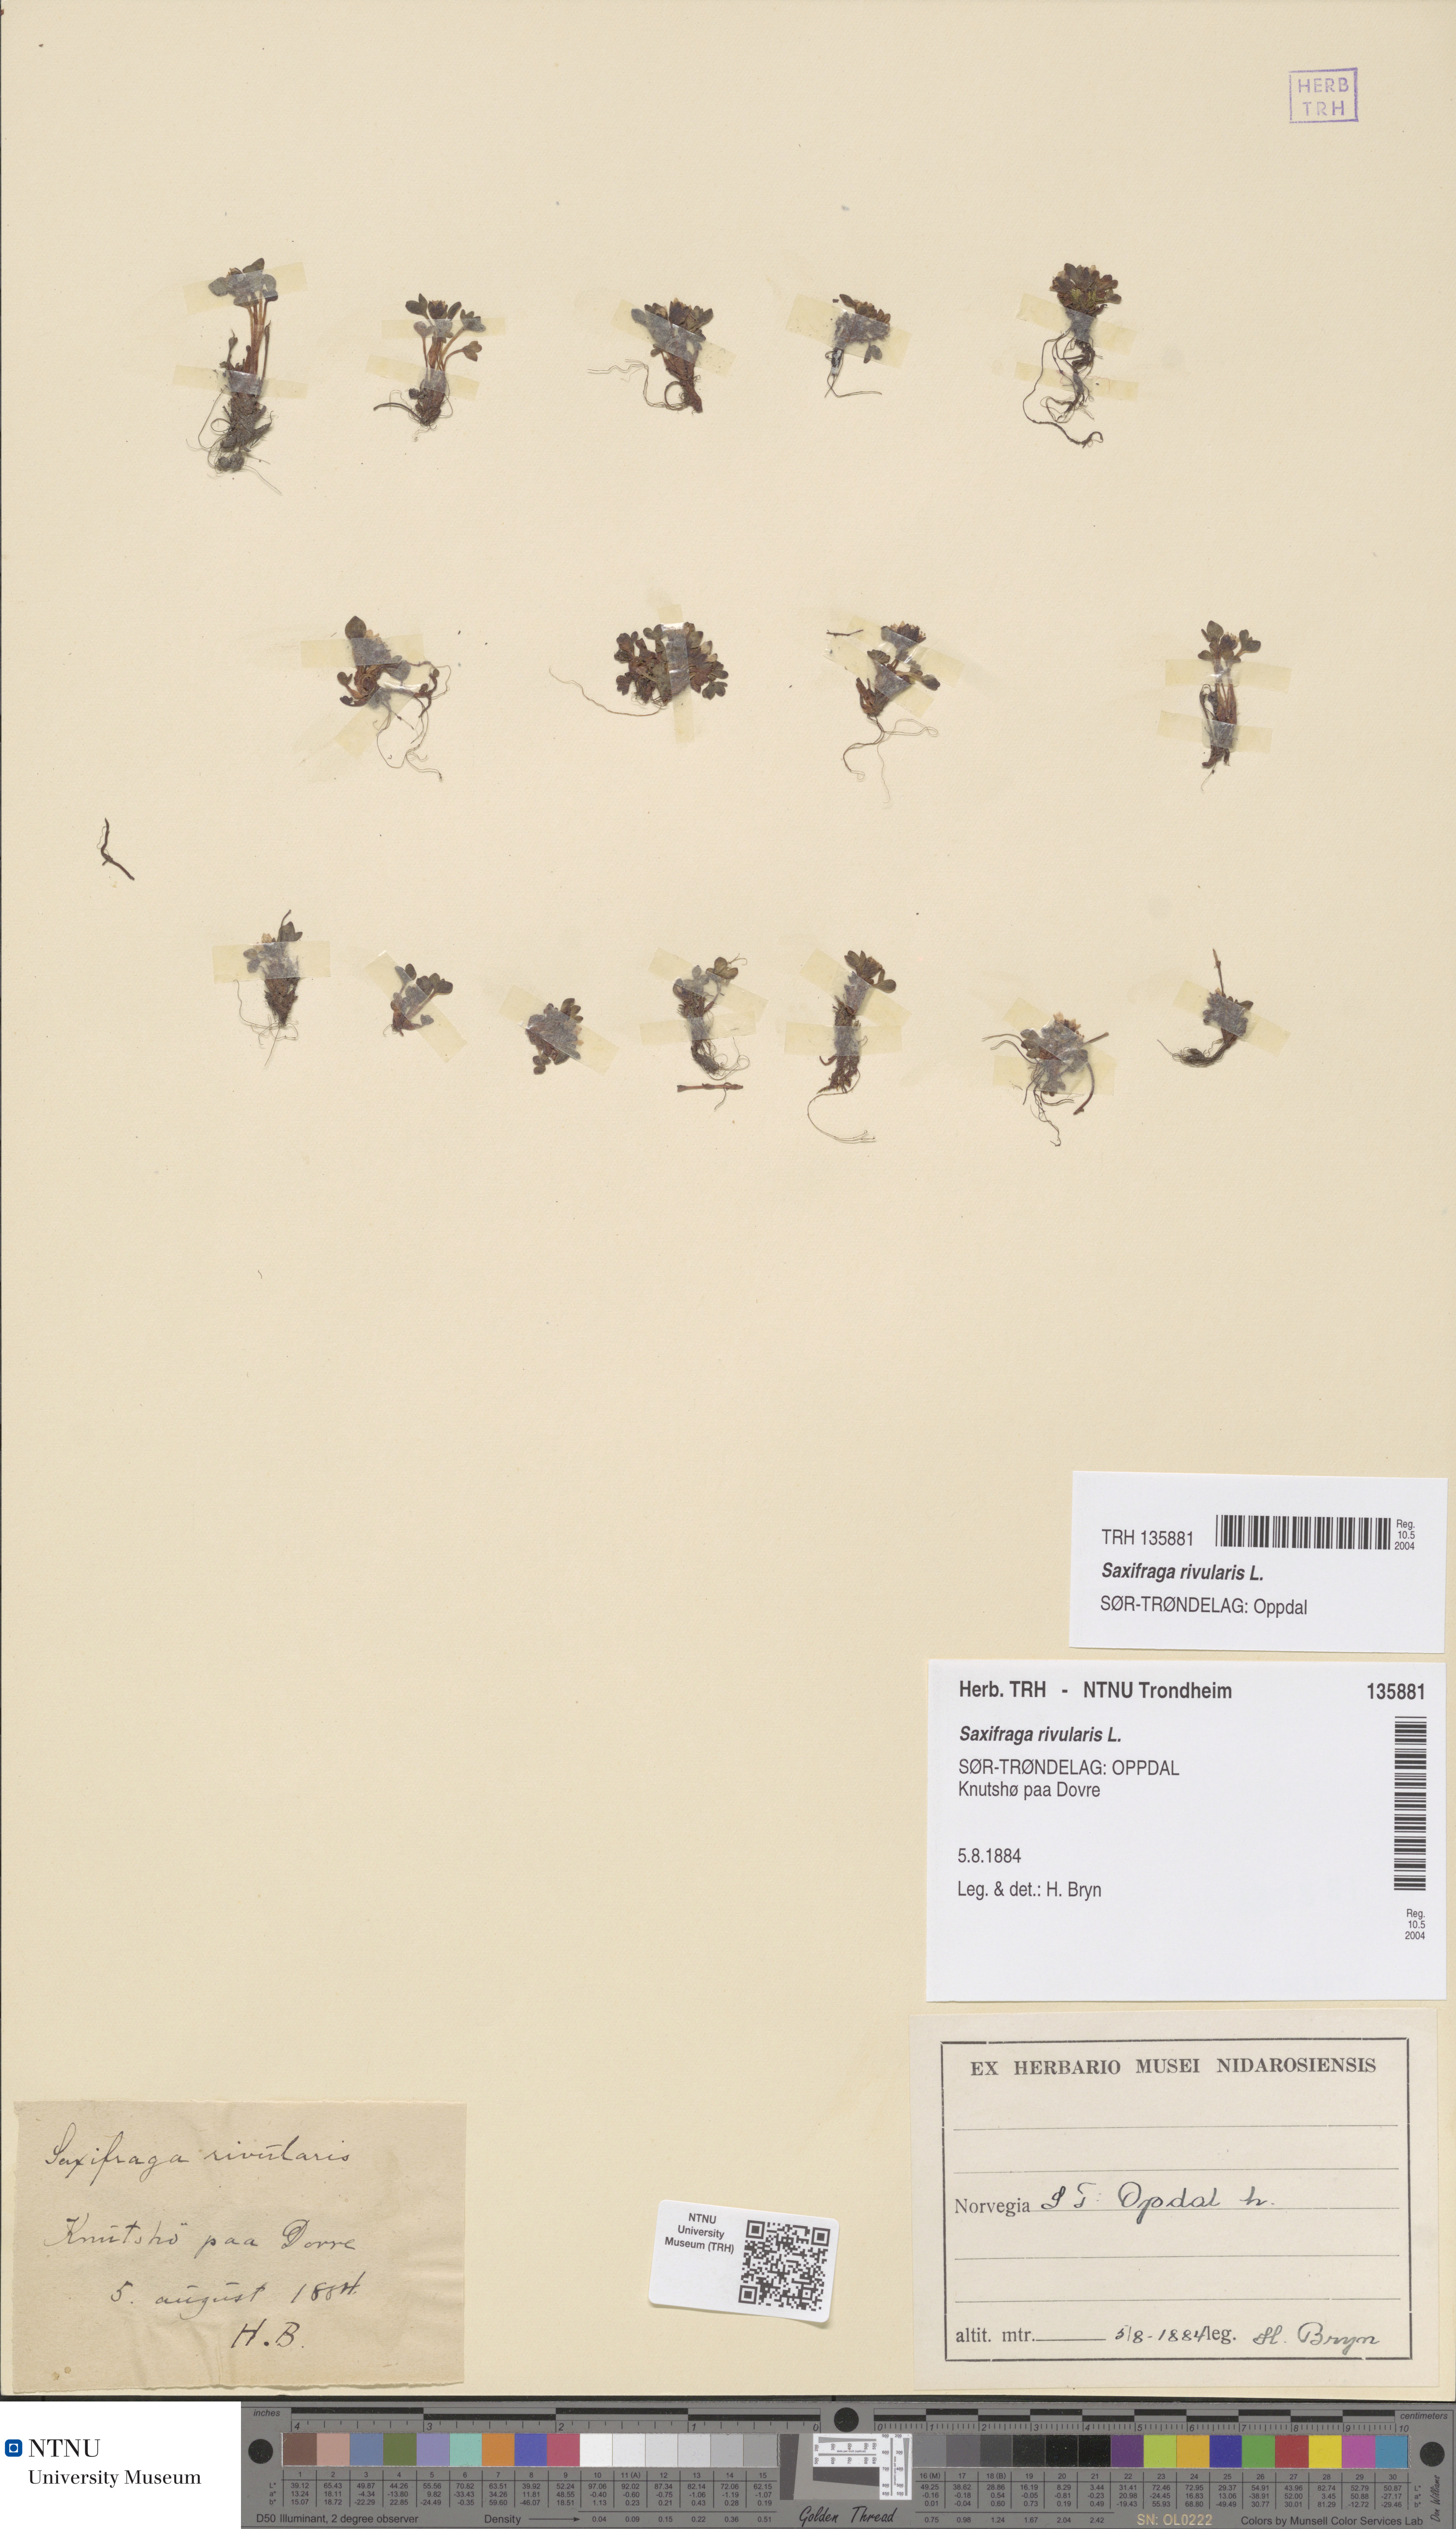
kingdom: Plantae
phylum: Tracheophyta
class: Magnoliopsida
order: Saxifragales
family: Saxifragaceae
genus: Saxifraga
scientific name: Saxifraga rivularis
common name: Highland saxifrage
